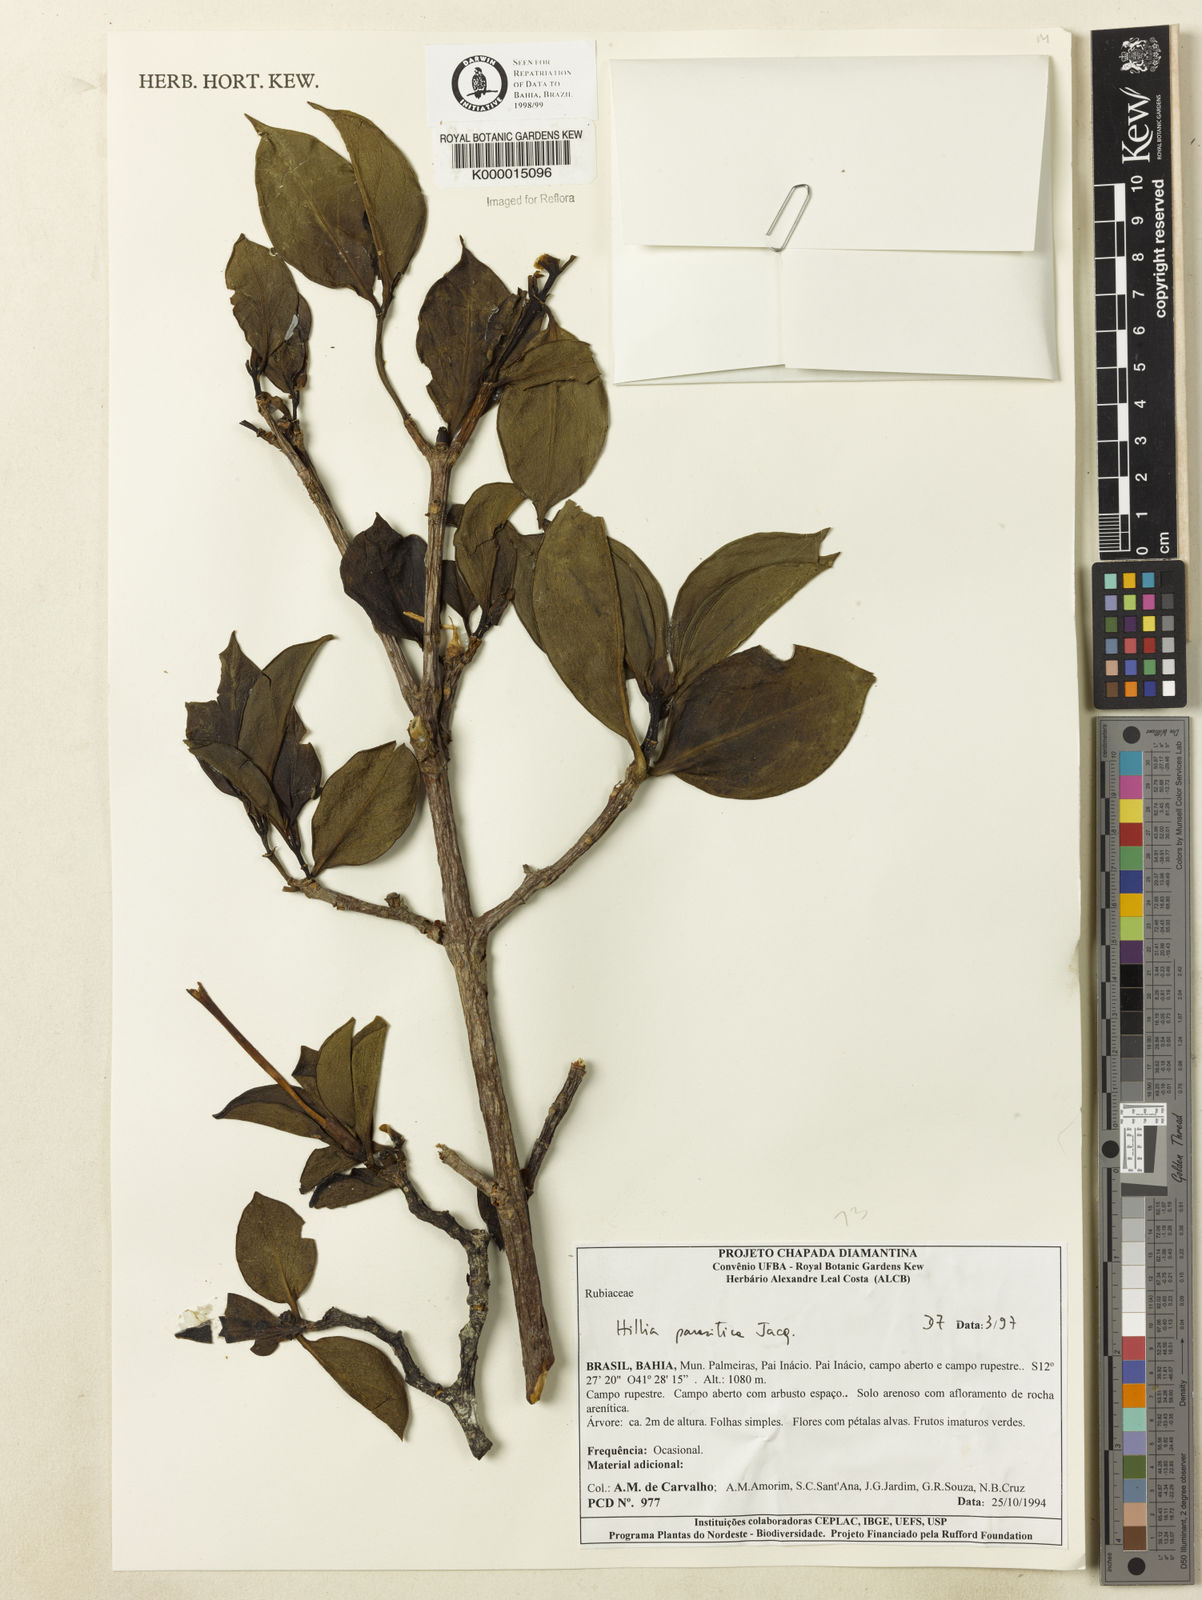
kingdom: Plantae
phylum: Tracheophyta
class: Magnoliopsida
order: Gentianales
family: Rubiaceae
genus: Hillia
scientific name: Hillia parasitica
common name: Morning star
